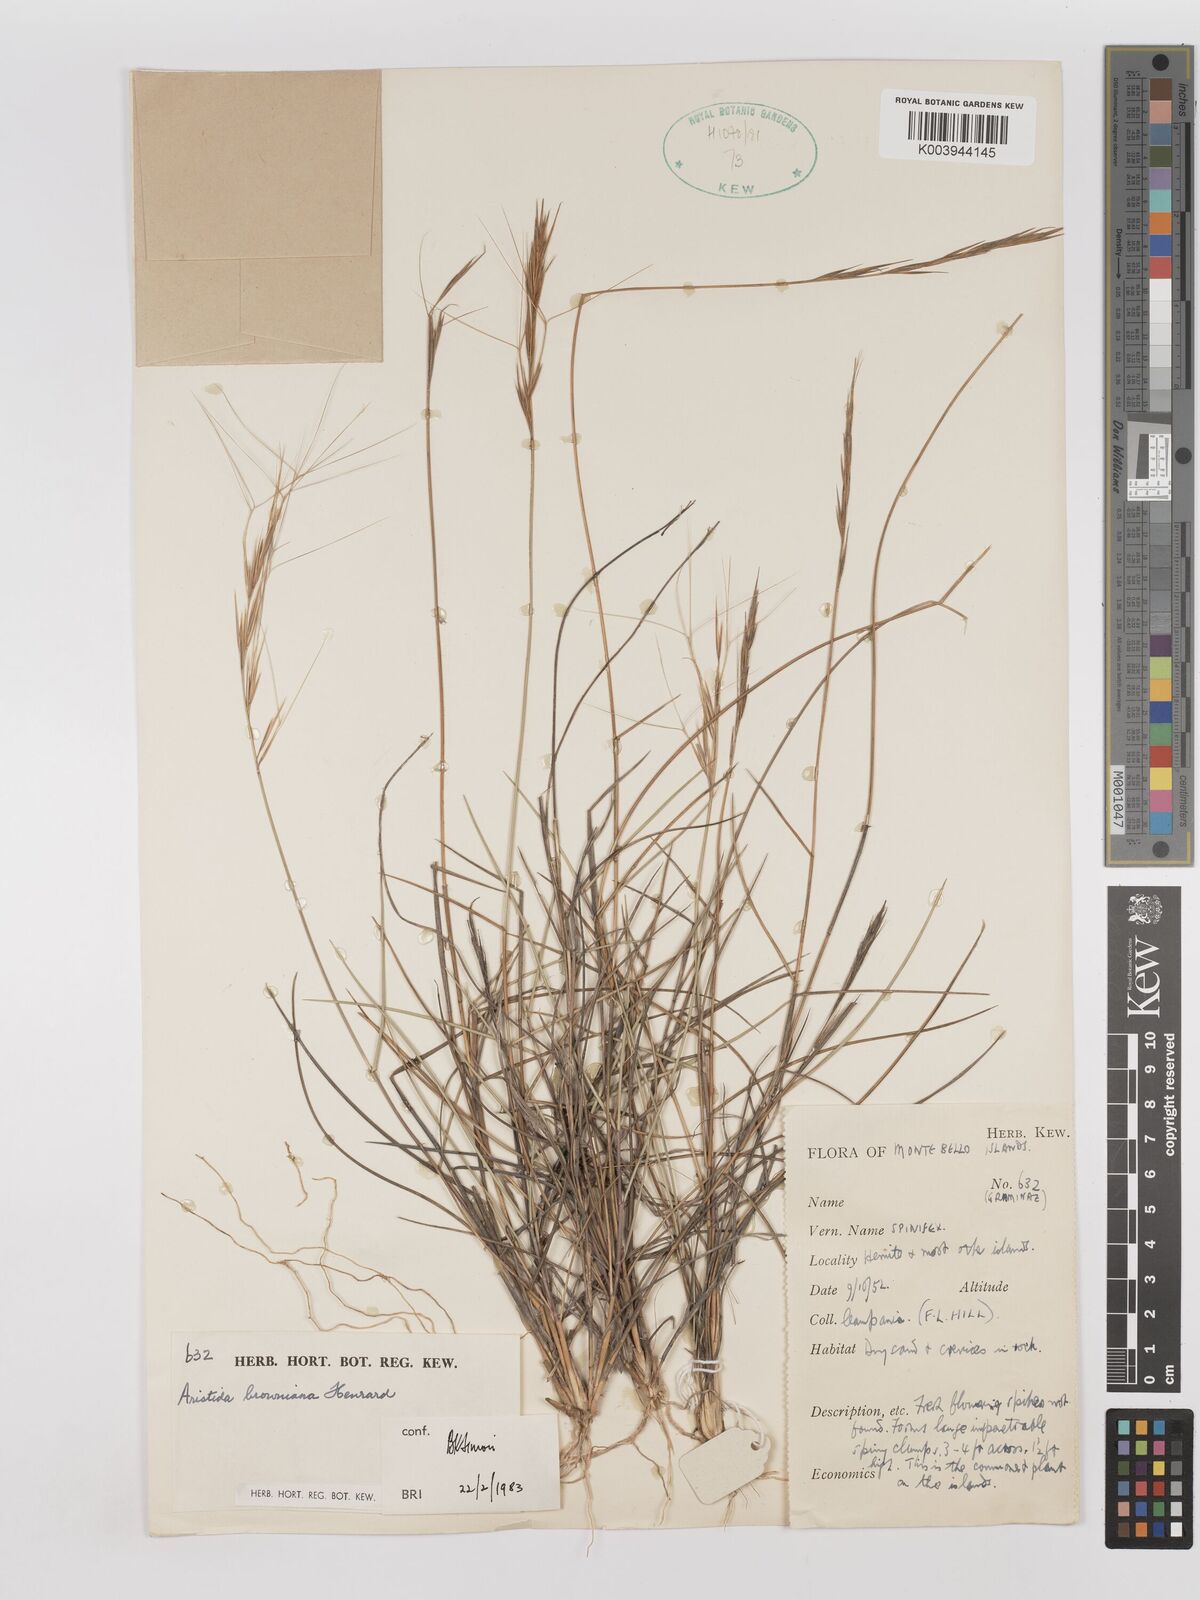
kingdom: Plantae
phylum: Tracheophyta
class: Liliopsida
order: Poales
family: Poaceae
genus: Aristida
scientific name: Aristida holathera
